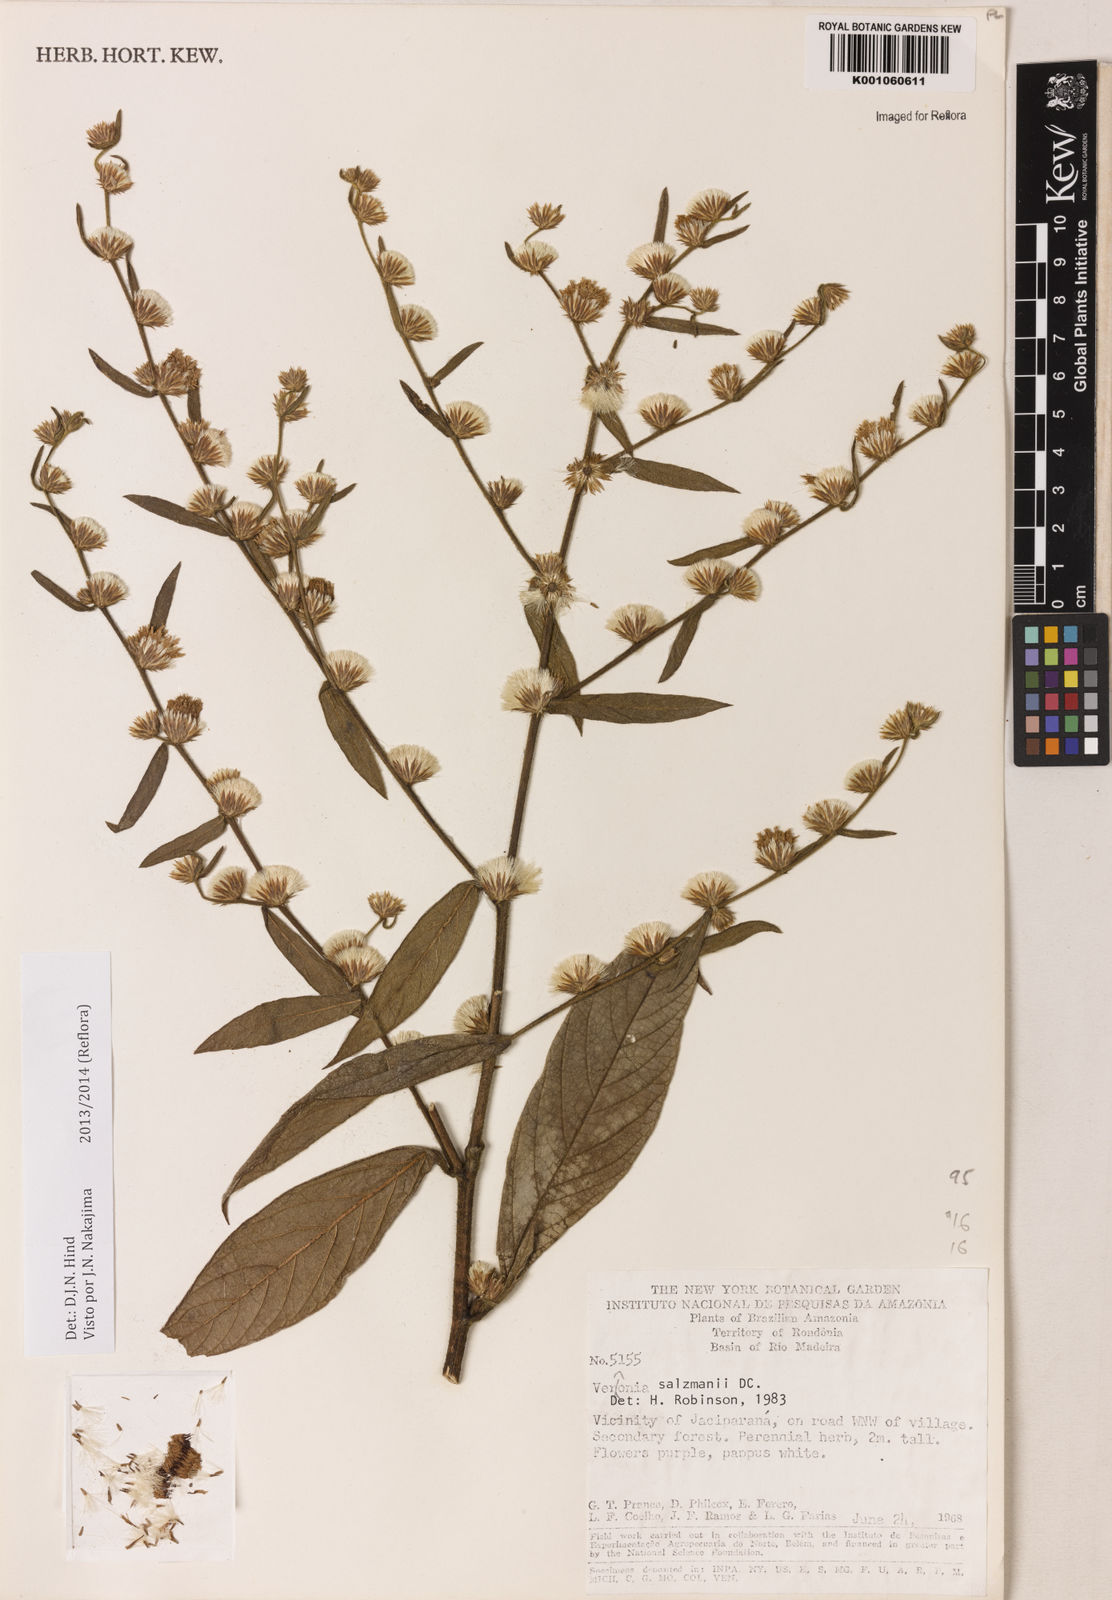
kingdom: Plantae
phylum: Tracheophyta
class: Magnoliopsida
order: Asterales
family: Asteraceae
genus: Lepidaploa
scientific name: Lepidaploa salzmannii
